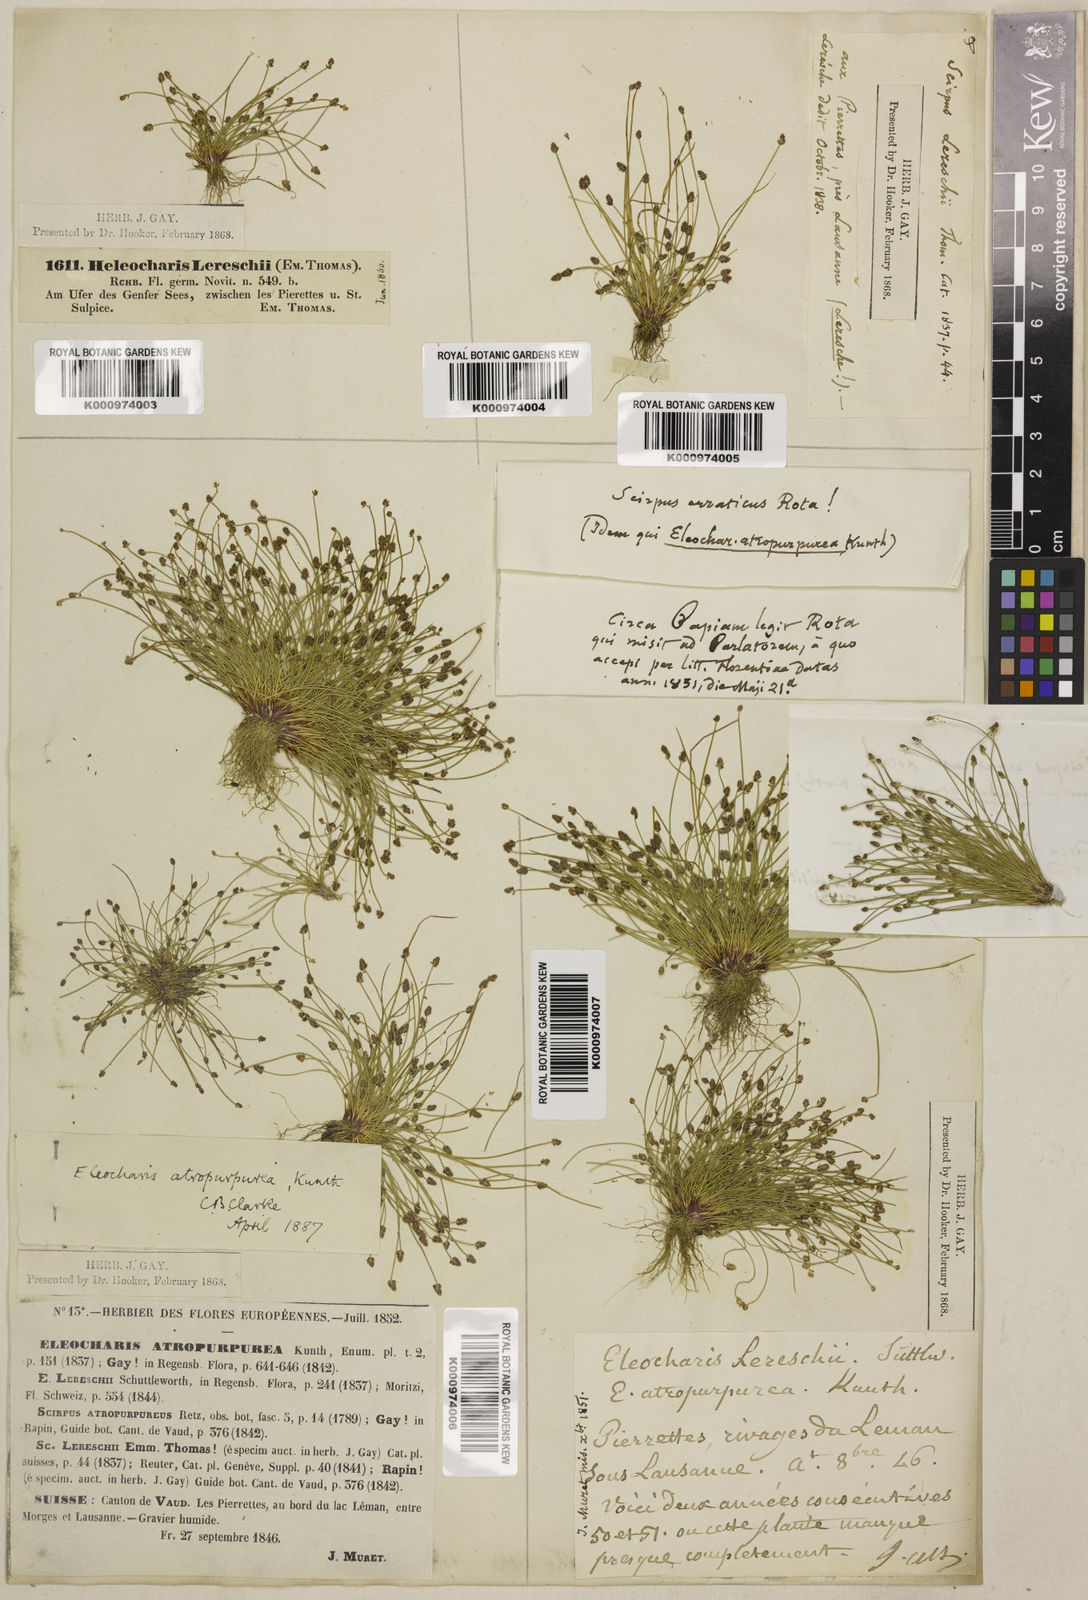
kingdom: Plantae
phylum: Tracheophyta
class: Liliopsida
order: Poales
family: Cyperaceae
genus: Eleocharis
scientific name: Eleocharis atropurpurea
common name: Purple spikerush
